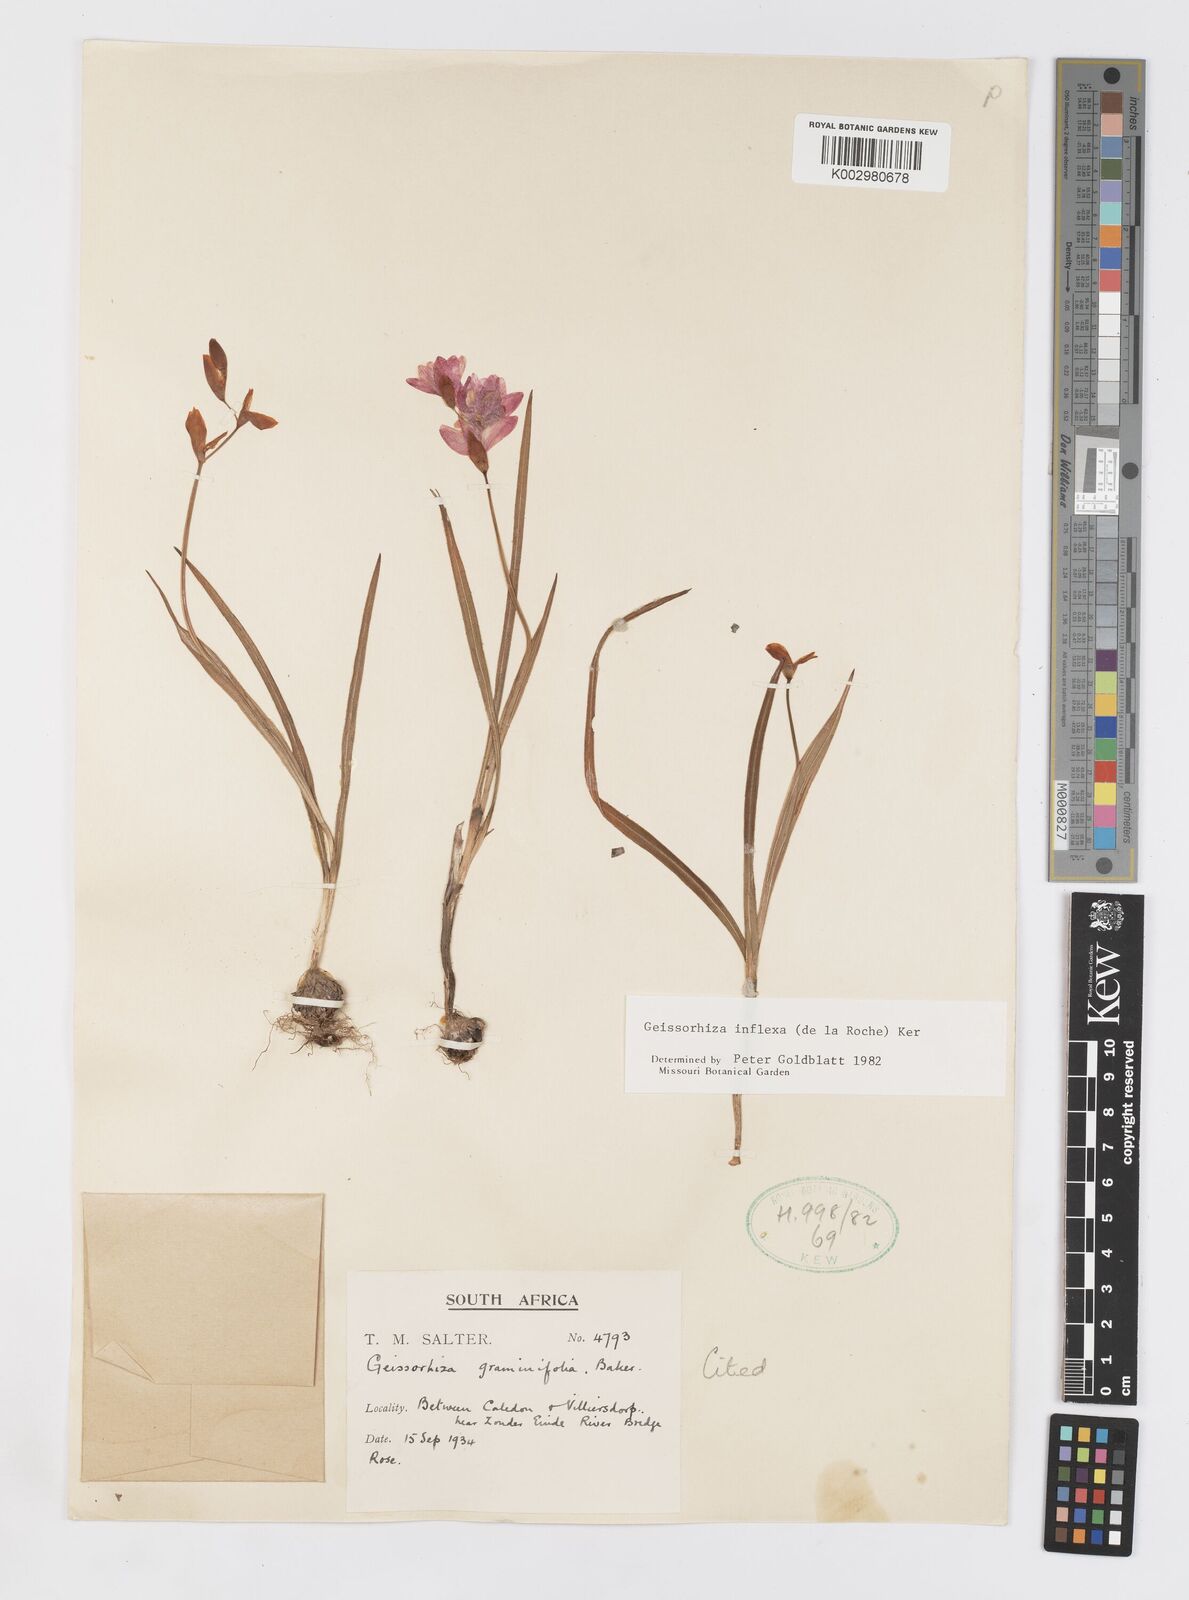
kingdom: Plantae
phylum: Tracheophyta
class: Liliopsida
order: Asparagales
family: Iridaceae
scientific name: Iridaceae
